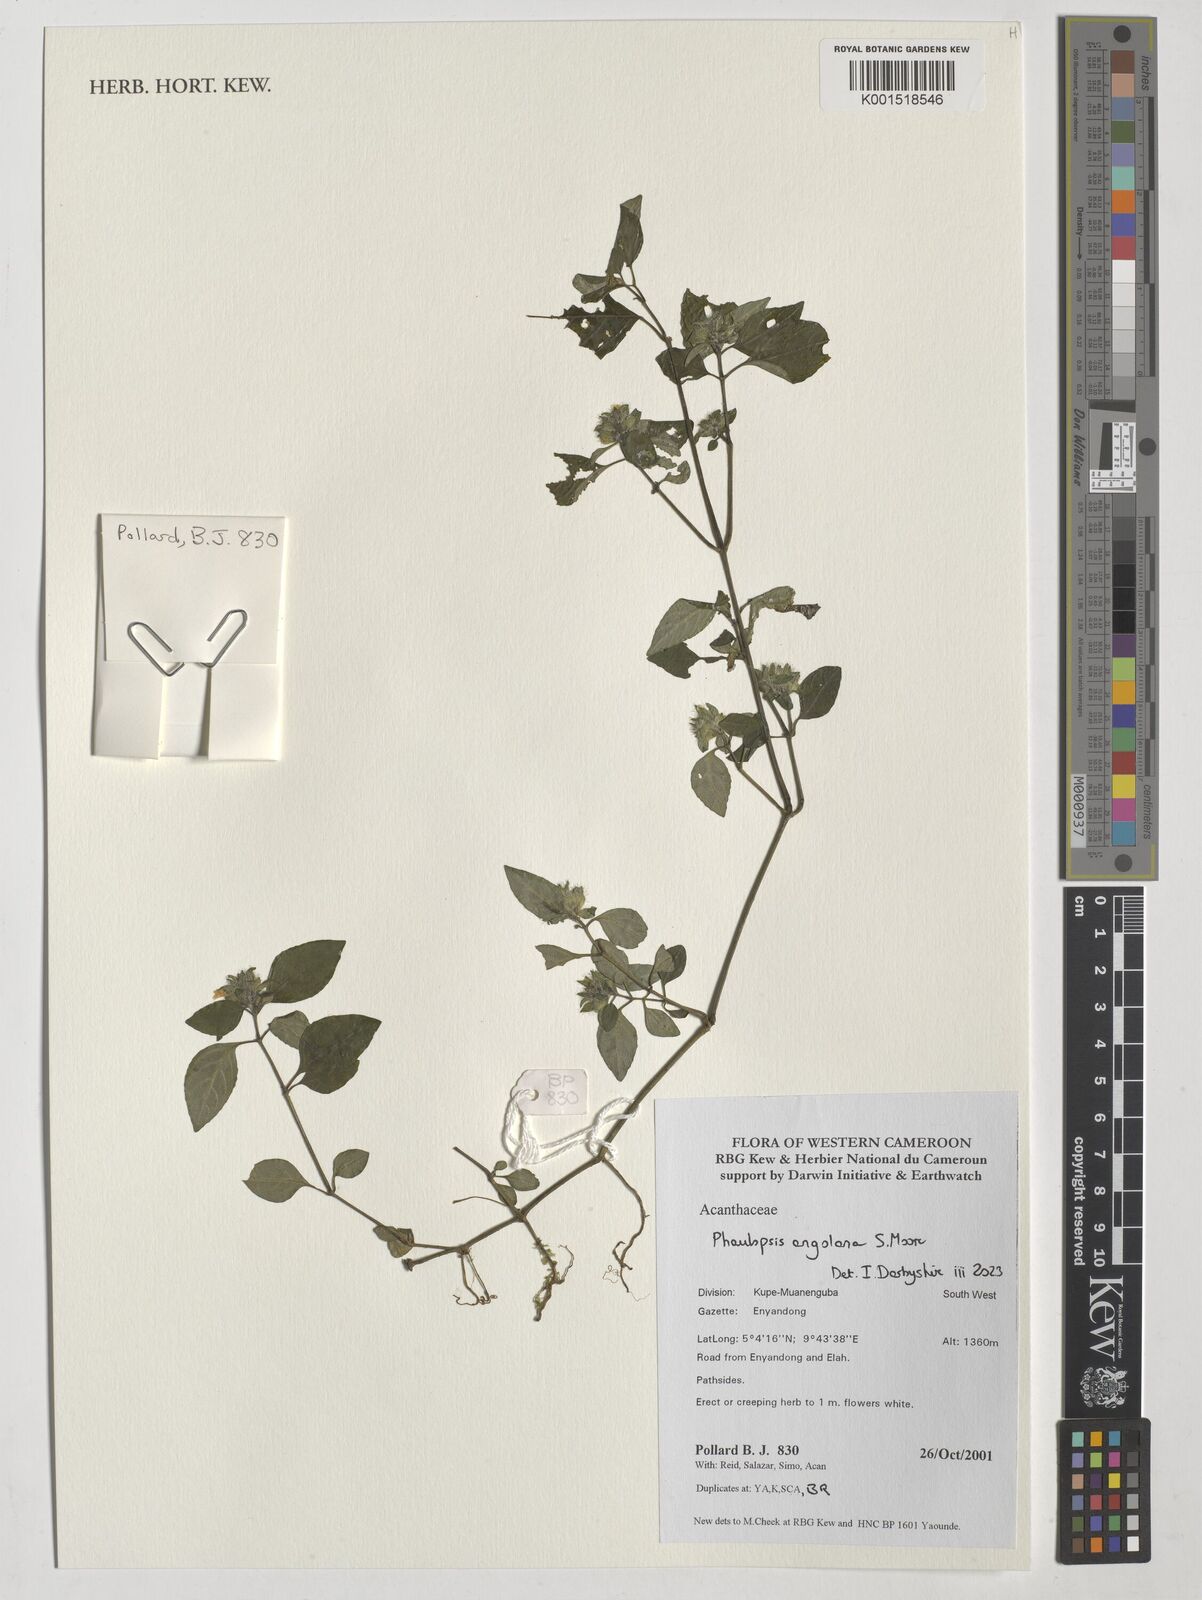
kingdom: Plantae
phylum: Tracheophyta
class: Magnoliopsida
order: Lamiales
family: Acanthaceae
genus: Phaulopsis
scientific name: Phaulopsis angolana
